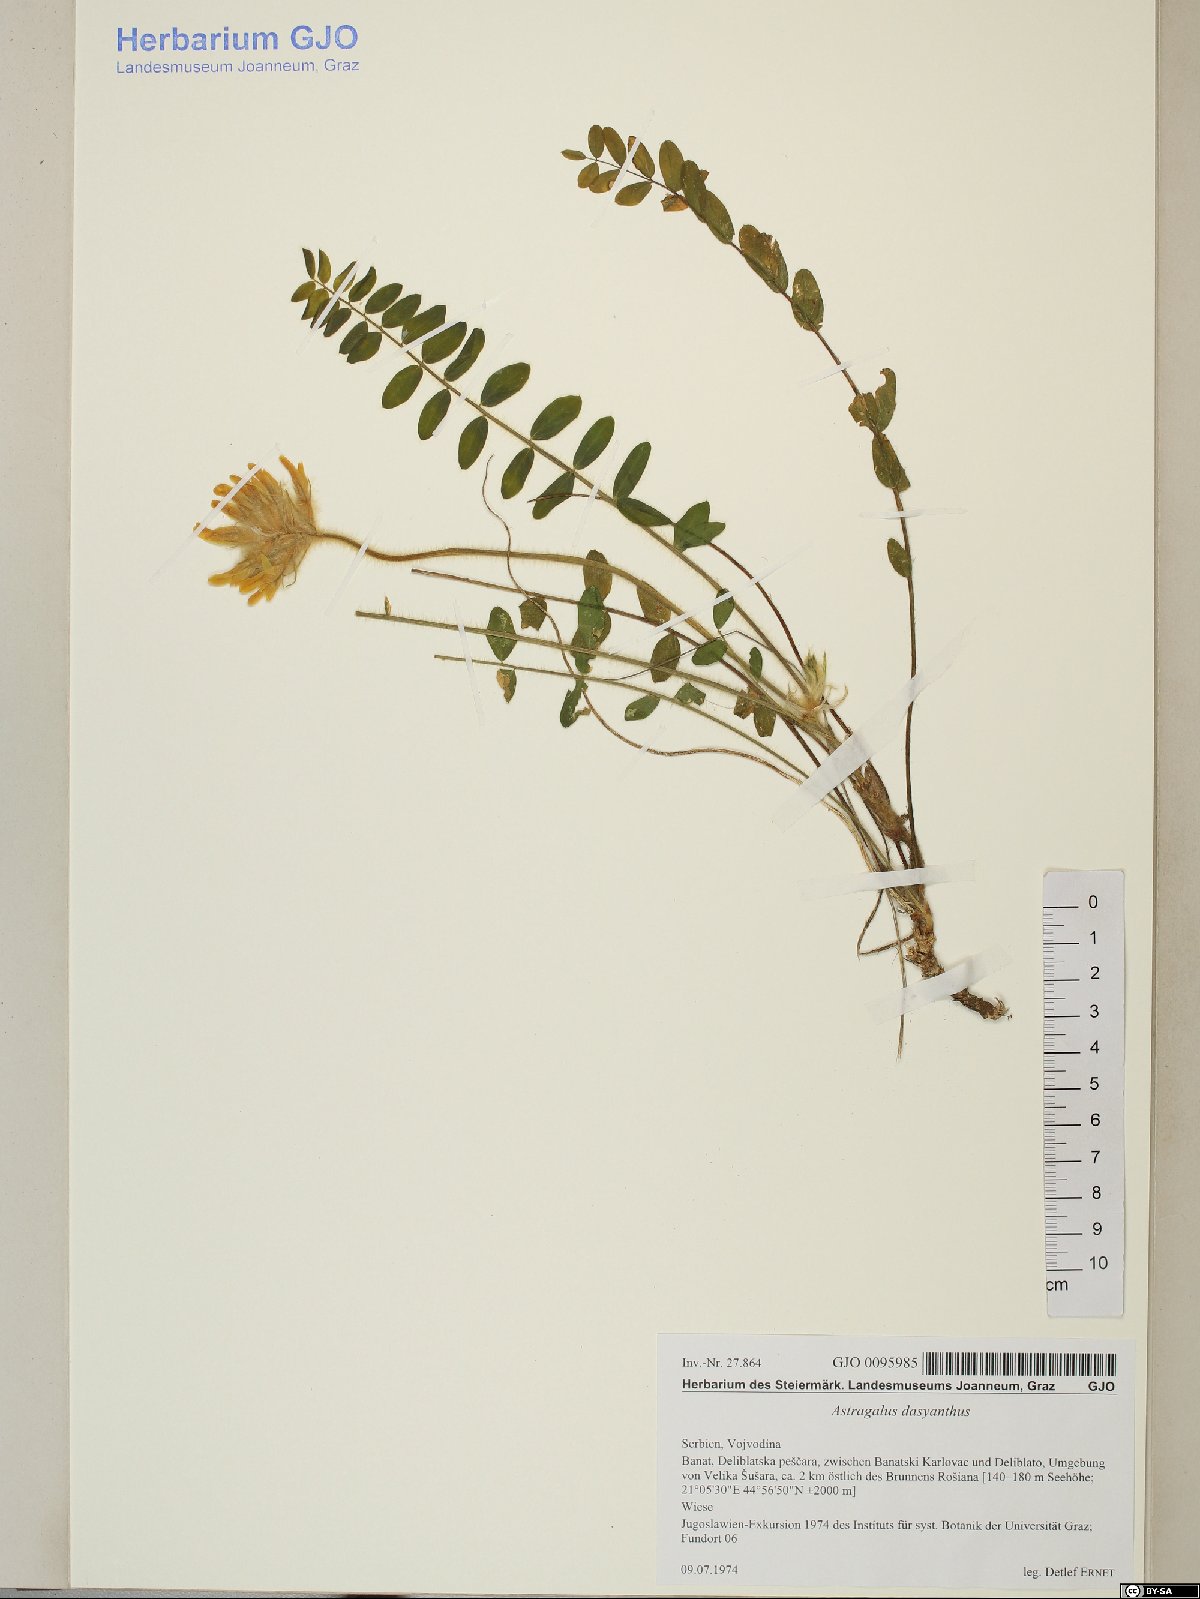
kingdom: Plantae
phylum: Tracheophyta
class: Magnoliopsida
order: Fabales
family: Fabaceae
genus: Astragalus
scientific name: Astragalus dasyanthus
